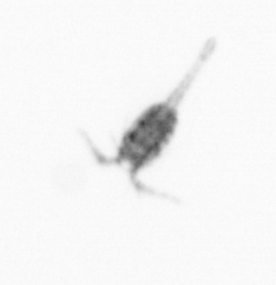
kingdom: Animalia
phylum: Arthropoda
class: Copepoda
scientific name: Copepoda
